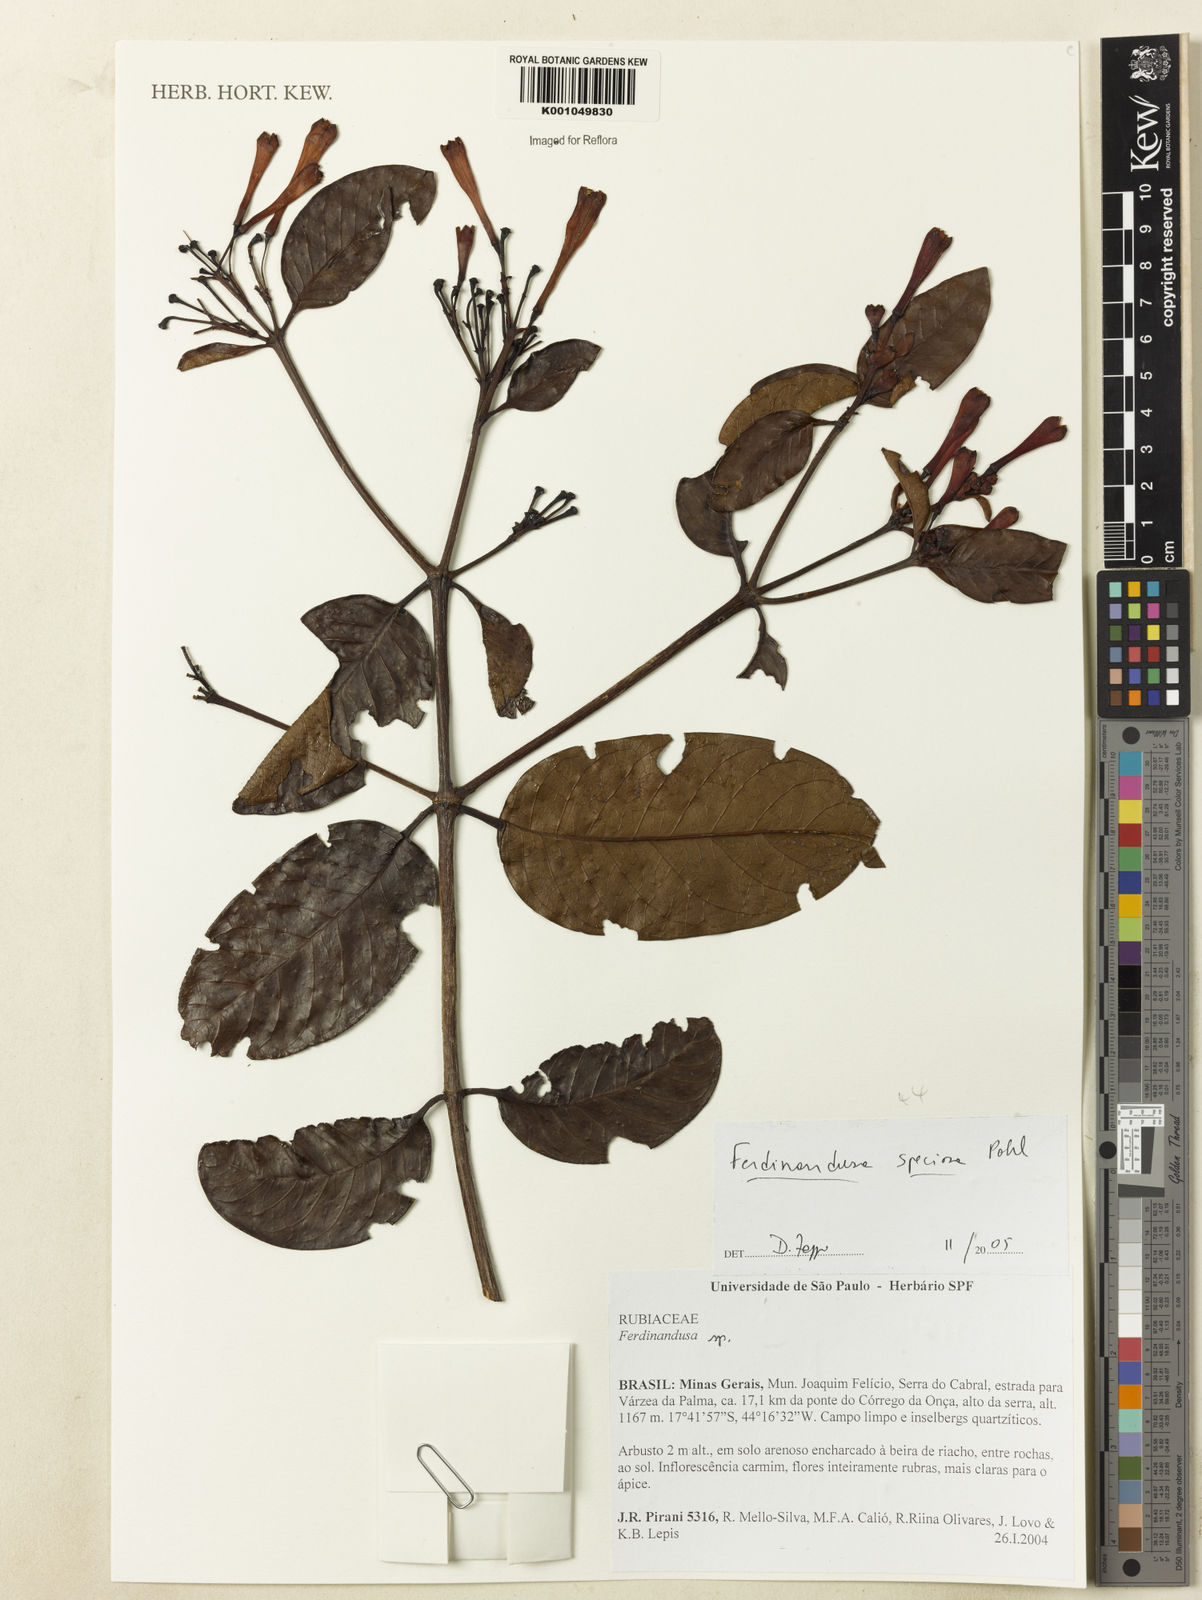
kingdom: Plantae
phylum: Tracheophyta
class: Magnoliopsida
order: Gentianales
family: Rubiaceae
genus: Ferdinandusa
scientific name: Ferdinandusa speciosa
